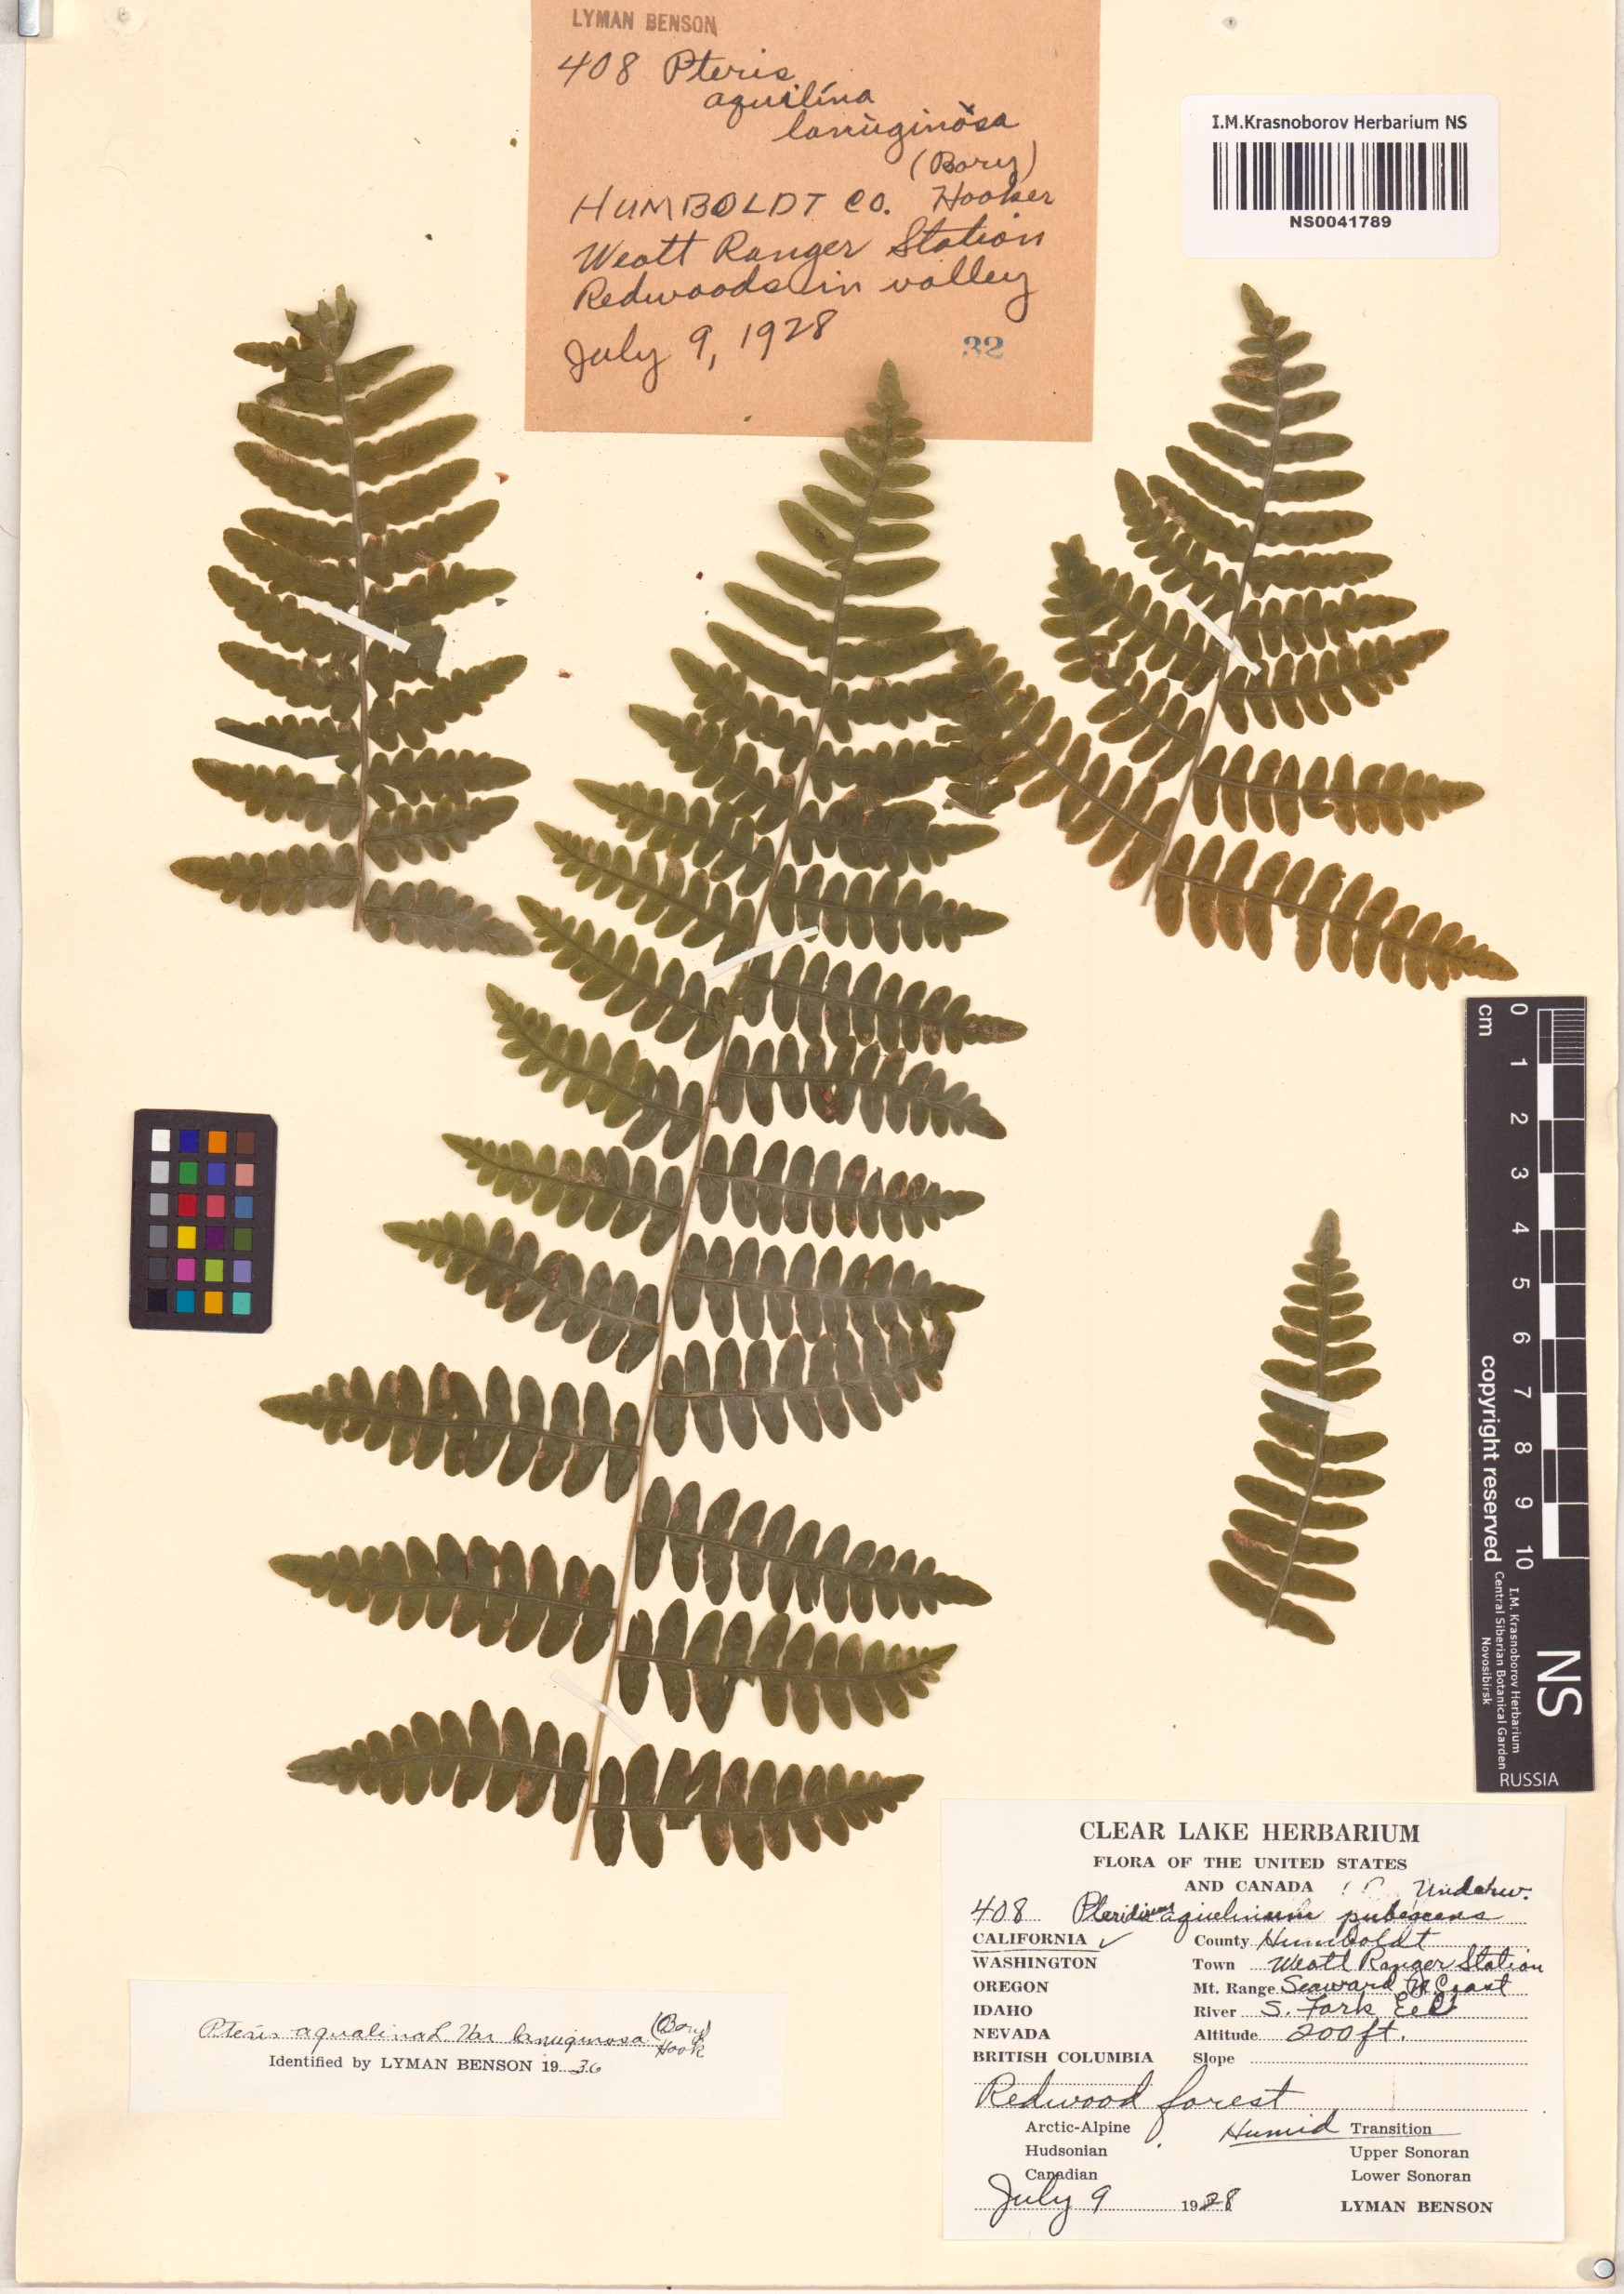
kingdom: Plantae
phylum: Tracheophyta
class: Polypodiopsida
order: Polypodiales
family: Dennstaedtiaceae
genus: Pteridium
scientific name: Pteridium aquilinum
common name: Bracken
